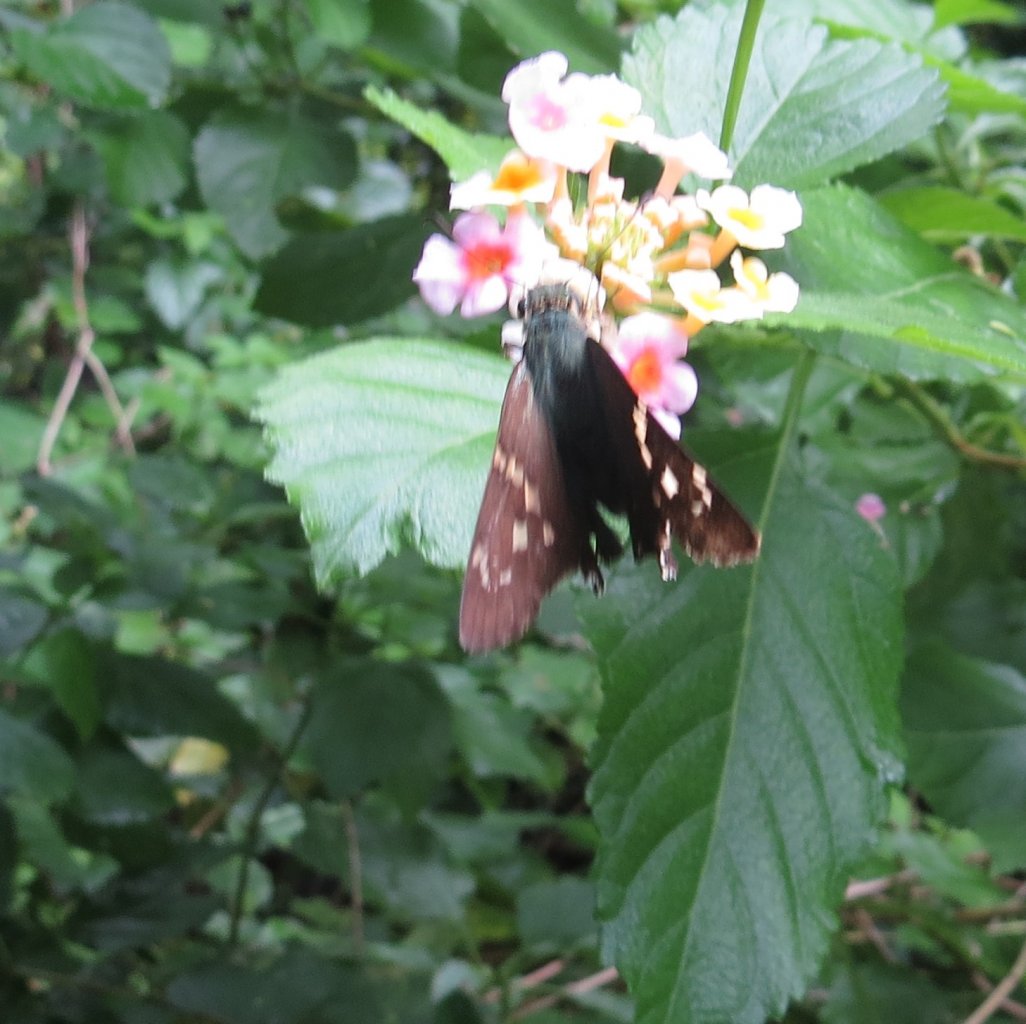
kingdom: Animalia
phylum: Arthropoda
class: Insecta
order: Lepidoptera
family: Hesperiidae
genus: Urbanus
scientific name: Urbanus proteus
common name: Long-tailed Skipper
